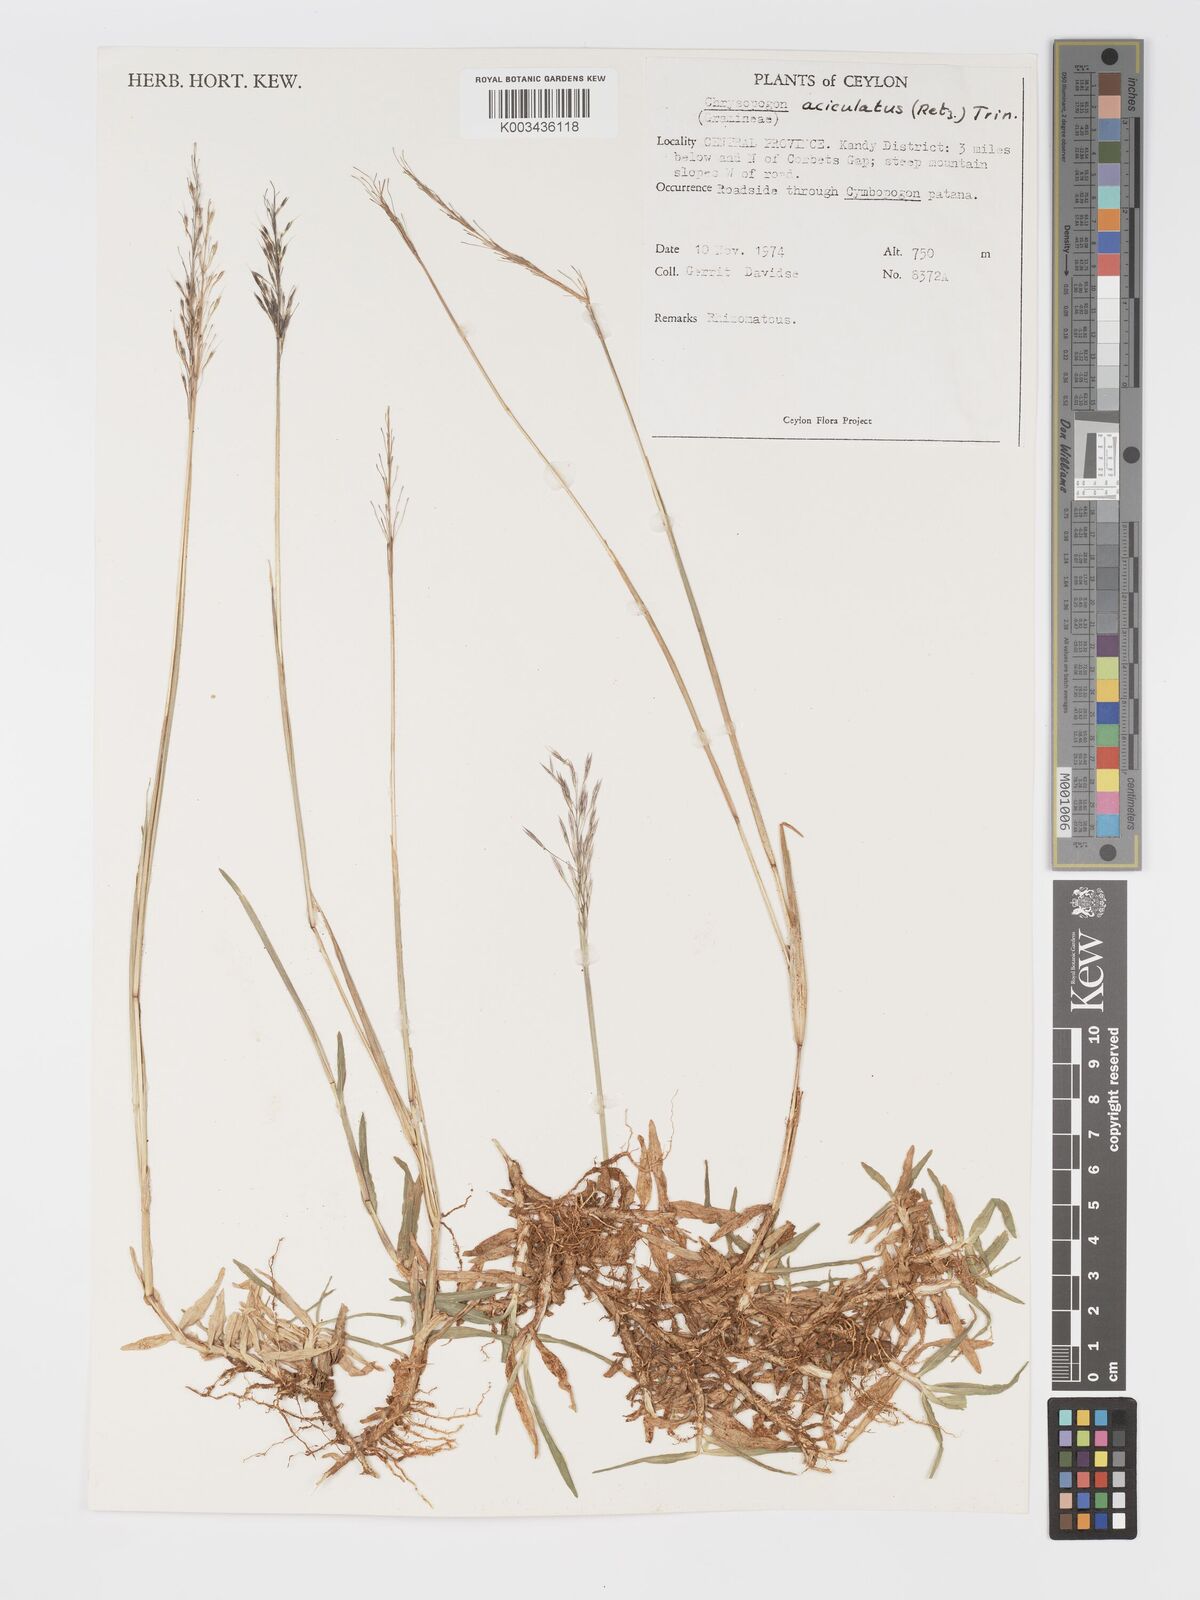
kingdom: Plantae
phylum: Tracheophyta
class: Liliopsida
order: Poales
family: Poaceae
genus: Chrysopogon
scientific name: Chrysopogon aciculatus
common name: Pilipiliula
